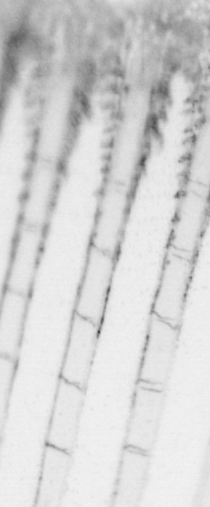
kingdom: Animalia
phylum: Chordata
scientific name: Chordata
